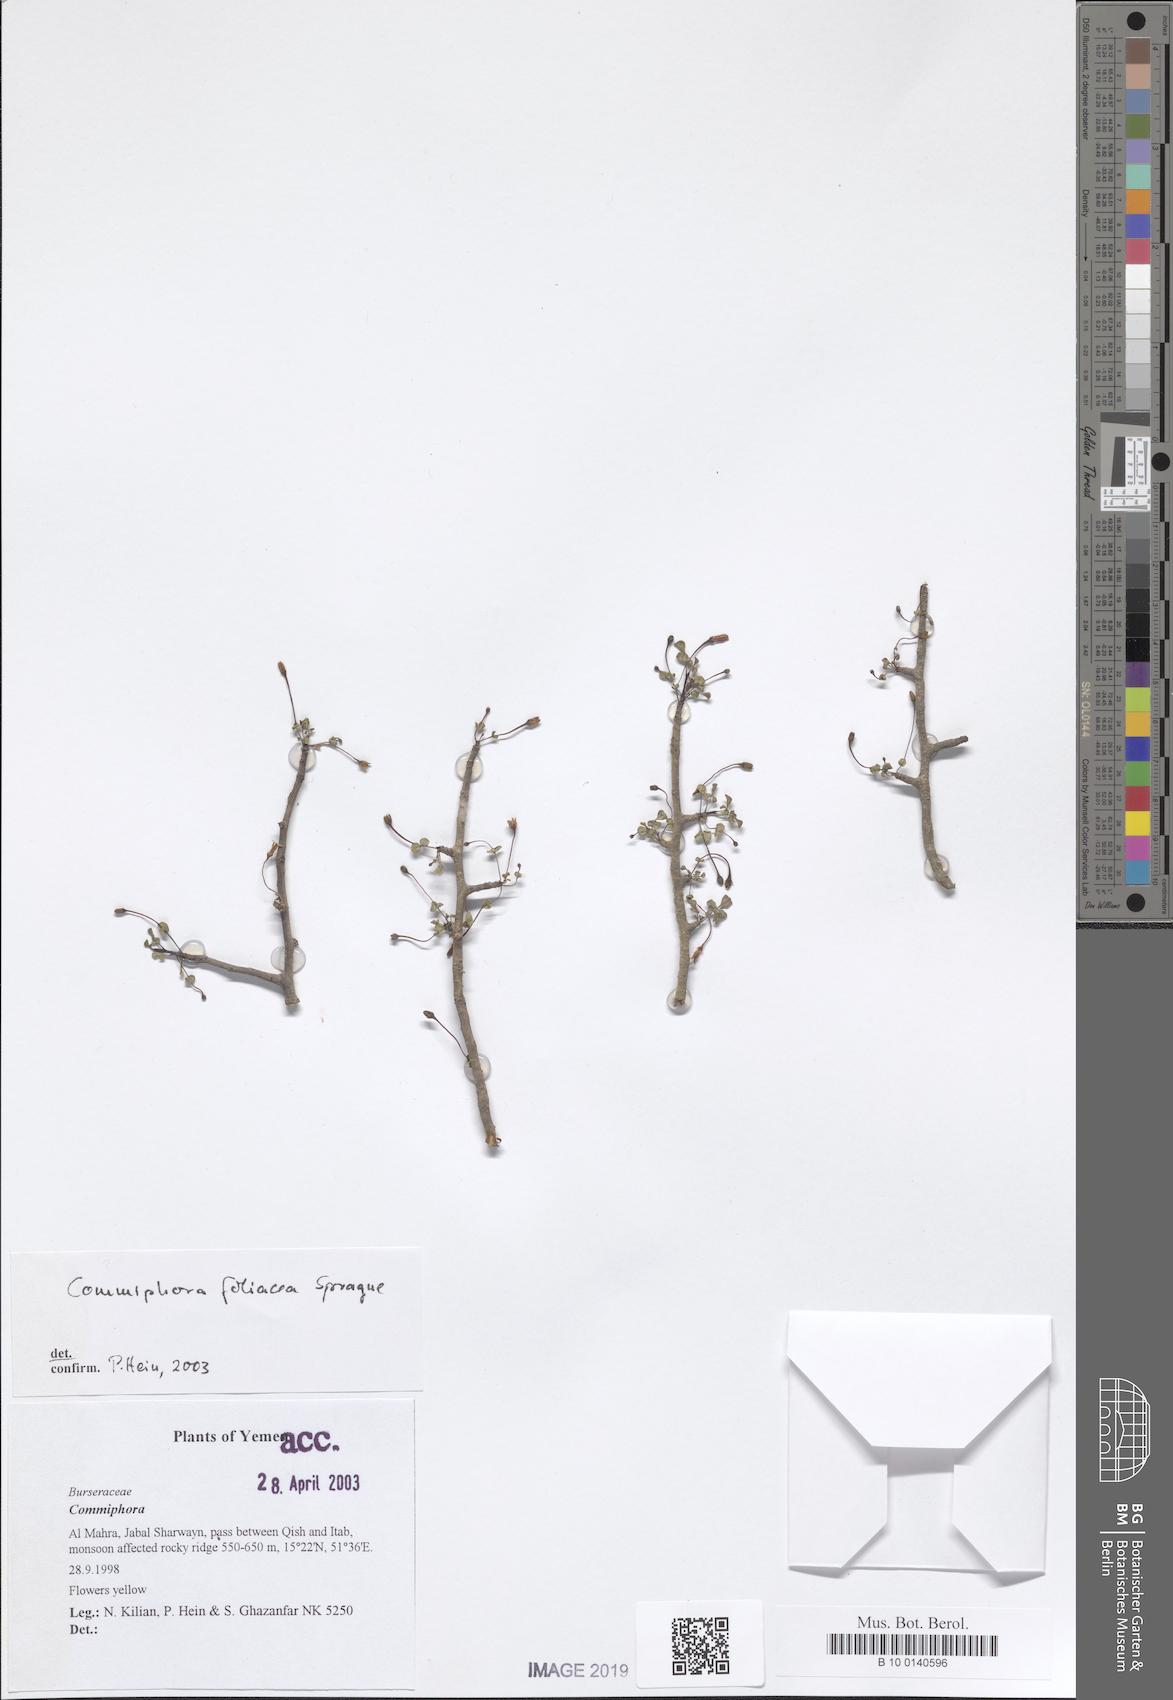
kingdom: Plantae
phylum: Tracheophyta
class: Magnoliopsida
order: Sapindales
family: Burseraceae
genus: Commiphora
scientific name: Commiphora foliacea
